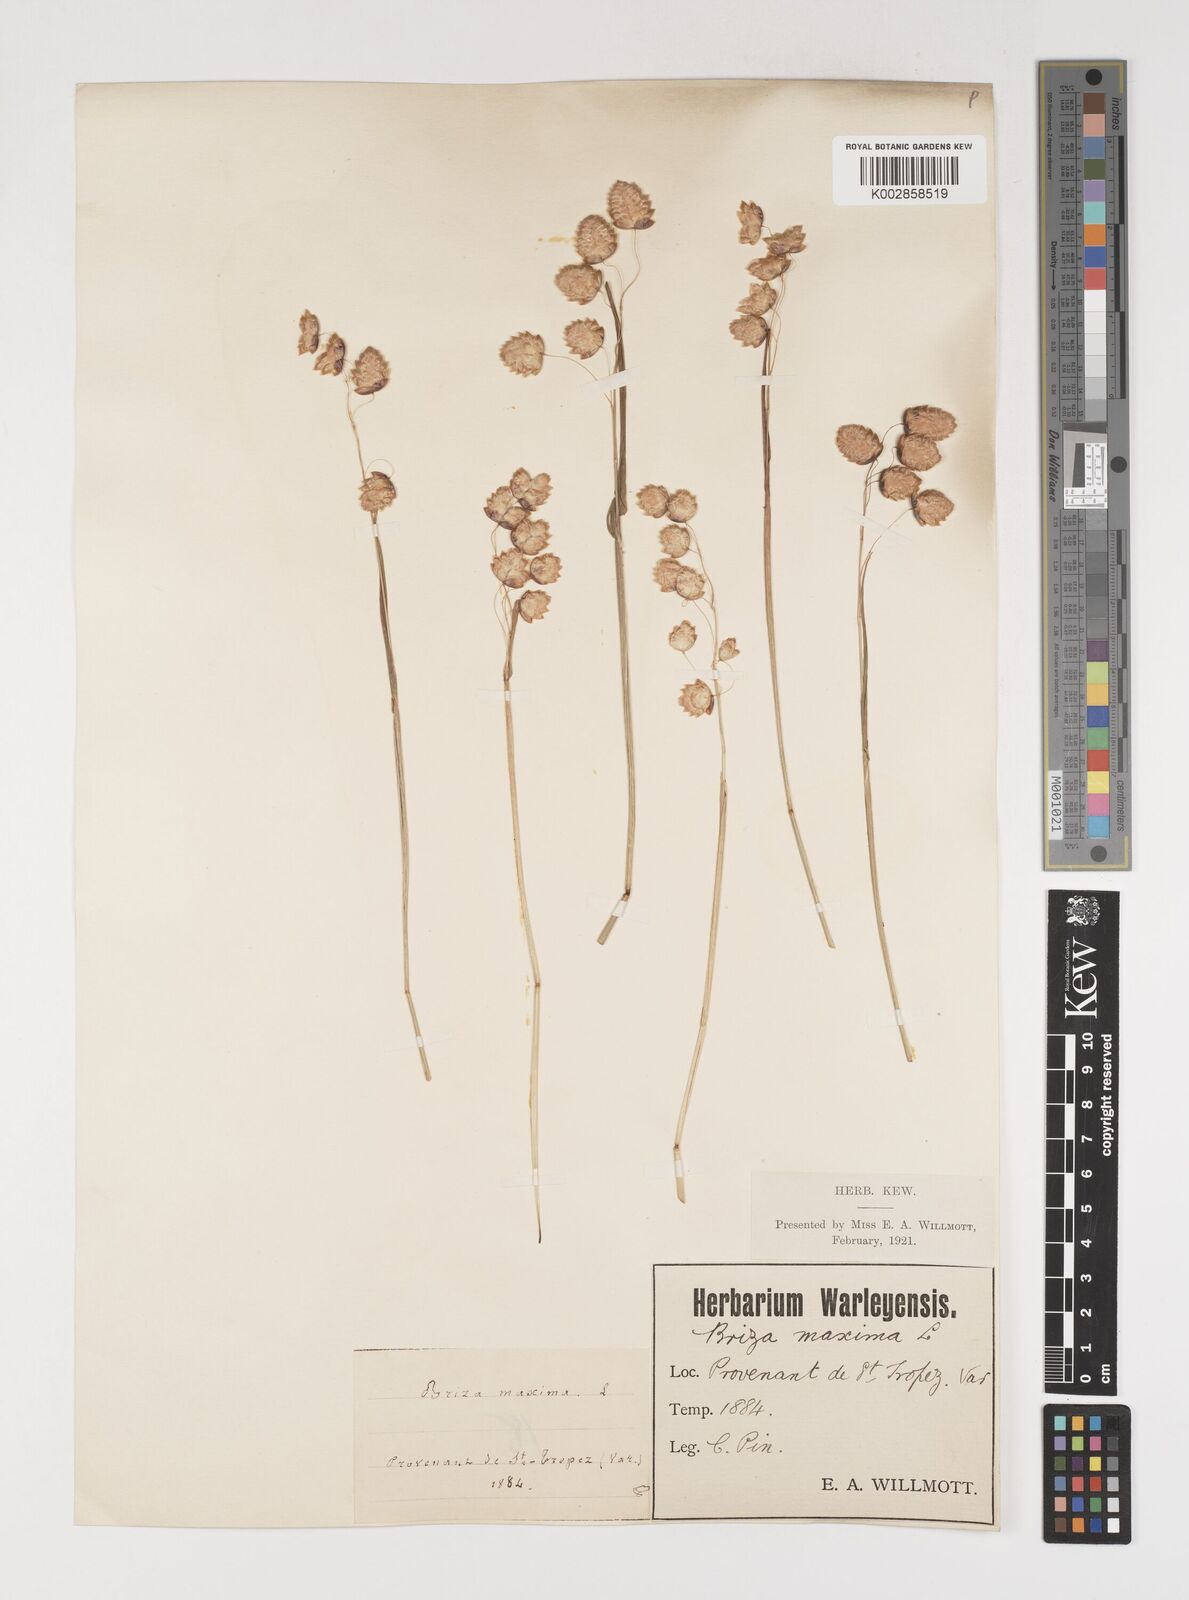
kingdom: Plantae
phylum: Tracheophyta
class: Liliopsida
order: Poales
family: Poaceae
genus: Briza
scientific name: Briza maxima
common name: Big quakinggrass
